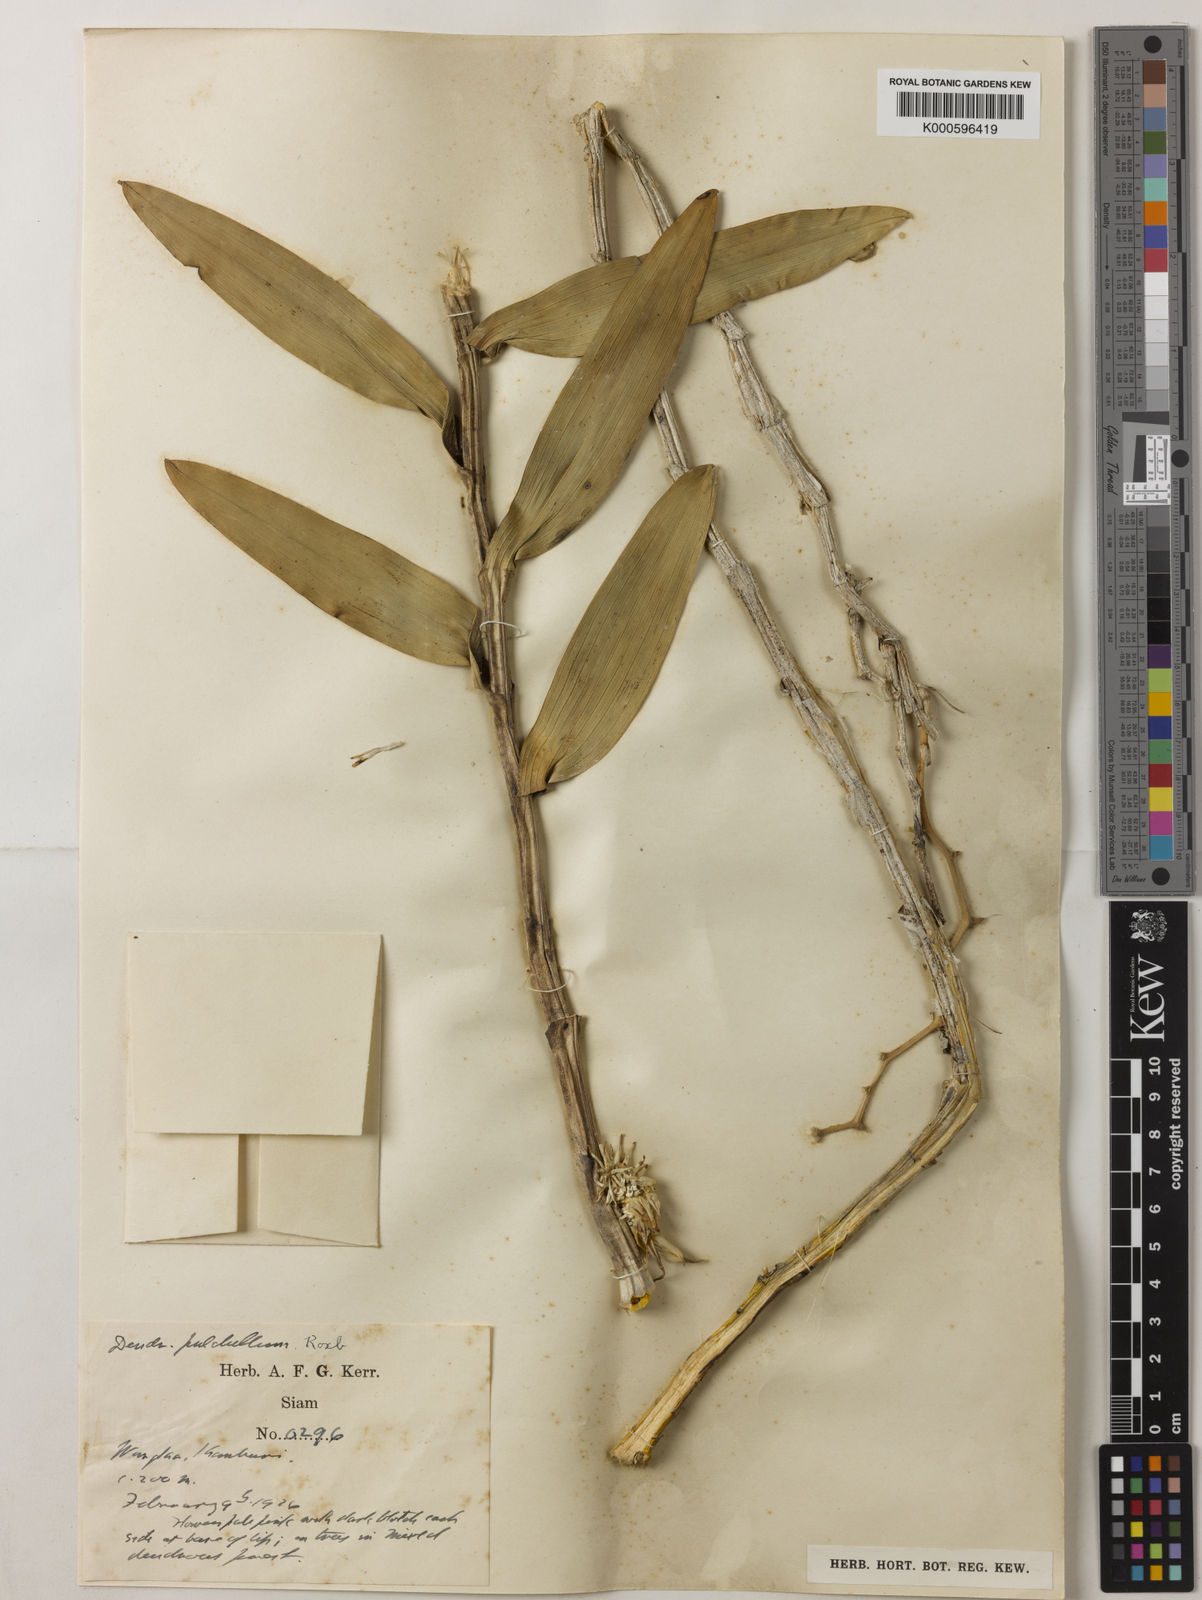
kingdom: Plantae
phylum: Tracheophyta
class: Liliopsida
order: Asparagales
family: Orchidaceae
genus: Dendrobium
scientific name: Dendrobium
